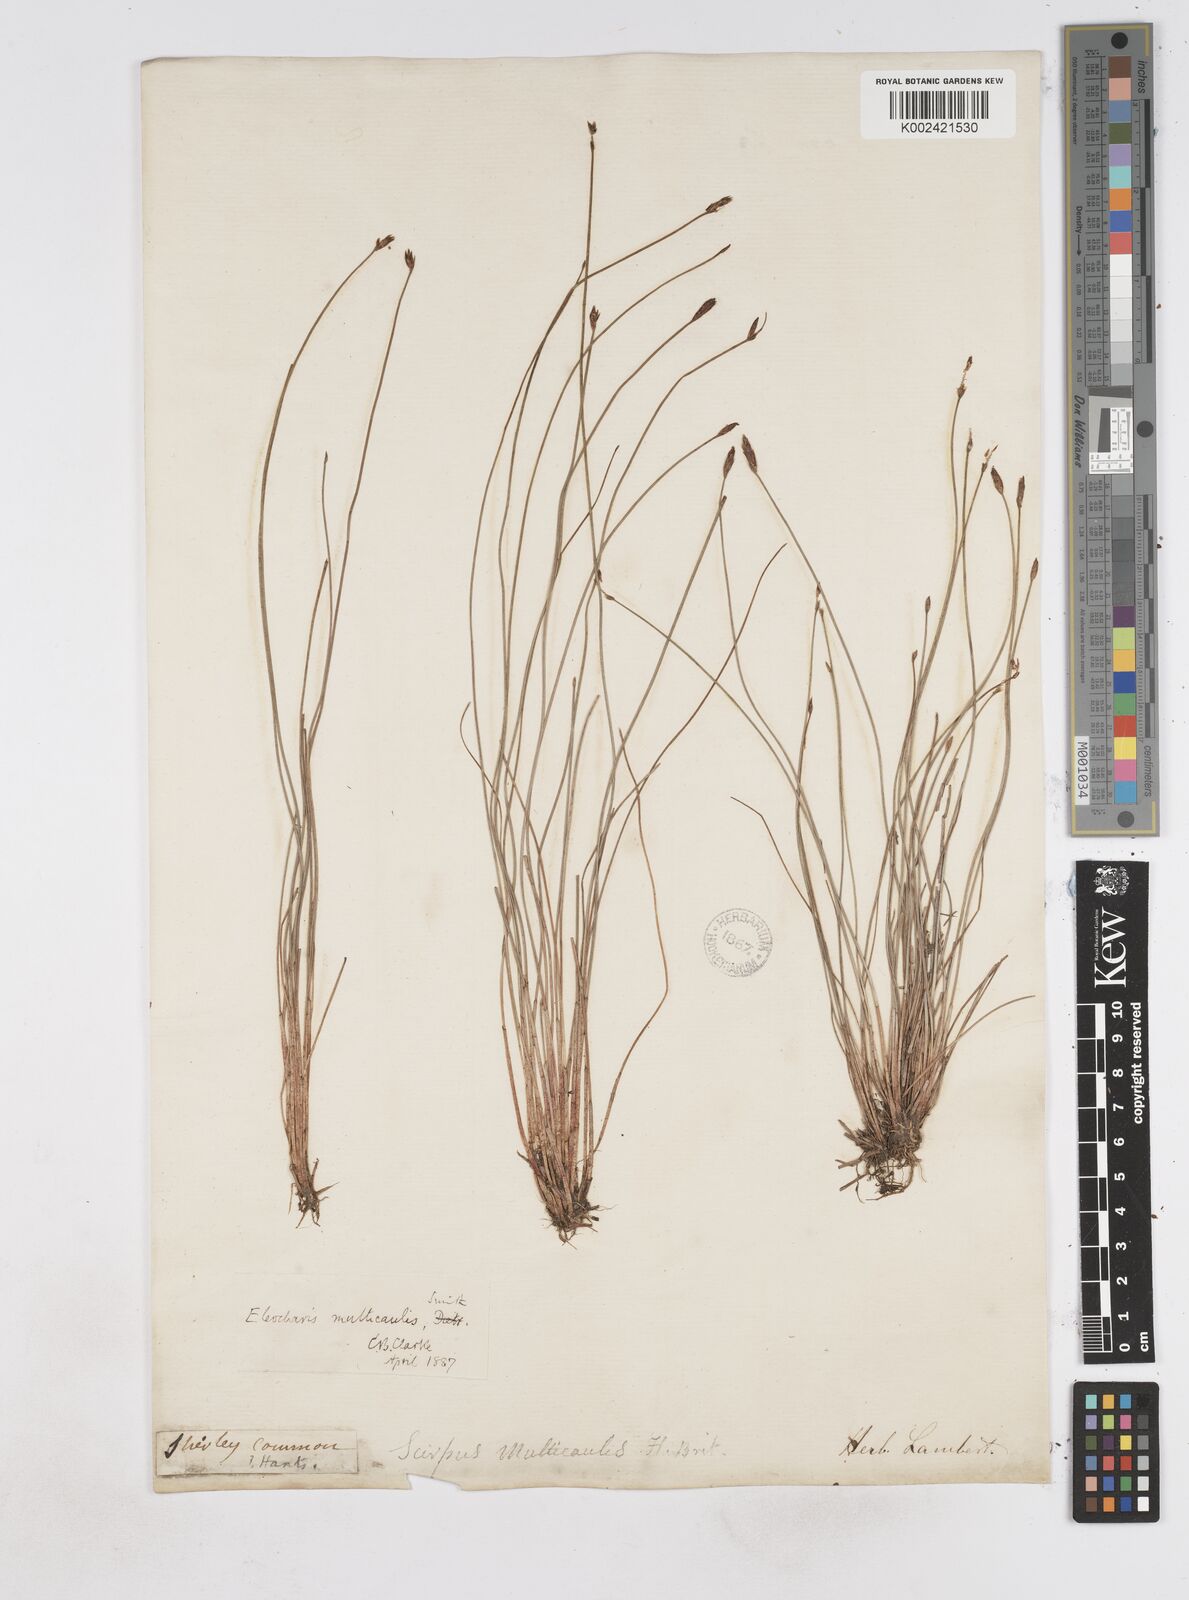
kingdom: Plantae
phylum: Tracheophyta
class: Liliopsida
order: Poales
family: Cyperaceae
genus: Eleocharis
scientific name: Eleocharis multicaulis
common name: Many-stalked spike-rush
